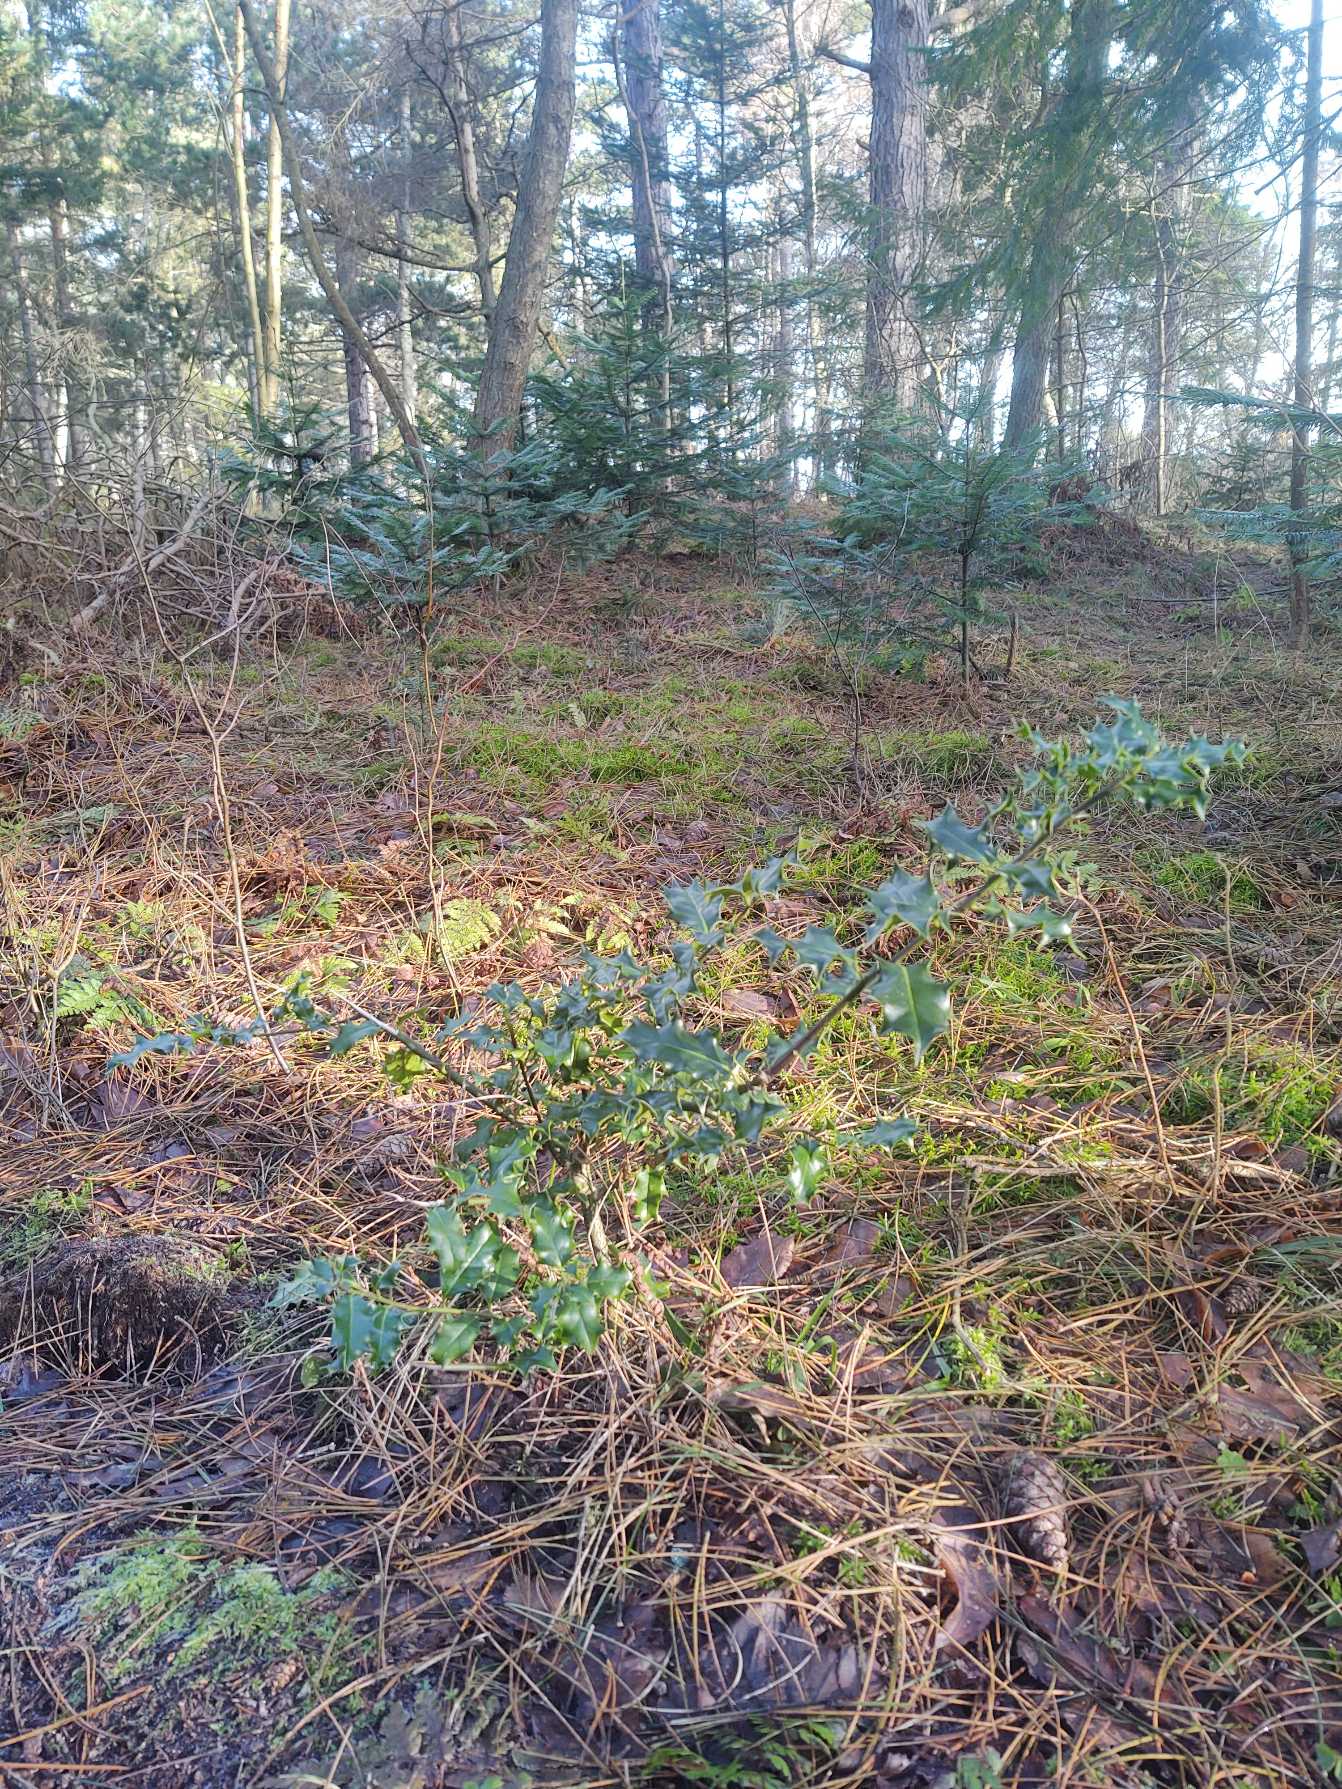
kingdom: Plantae
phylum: Tracheophyta
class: Magnoliopsida
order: Aquifoliales
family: Aquifoliaceae
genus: Ilex
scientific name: Ilex aquifolium
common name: Kristtorn
